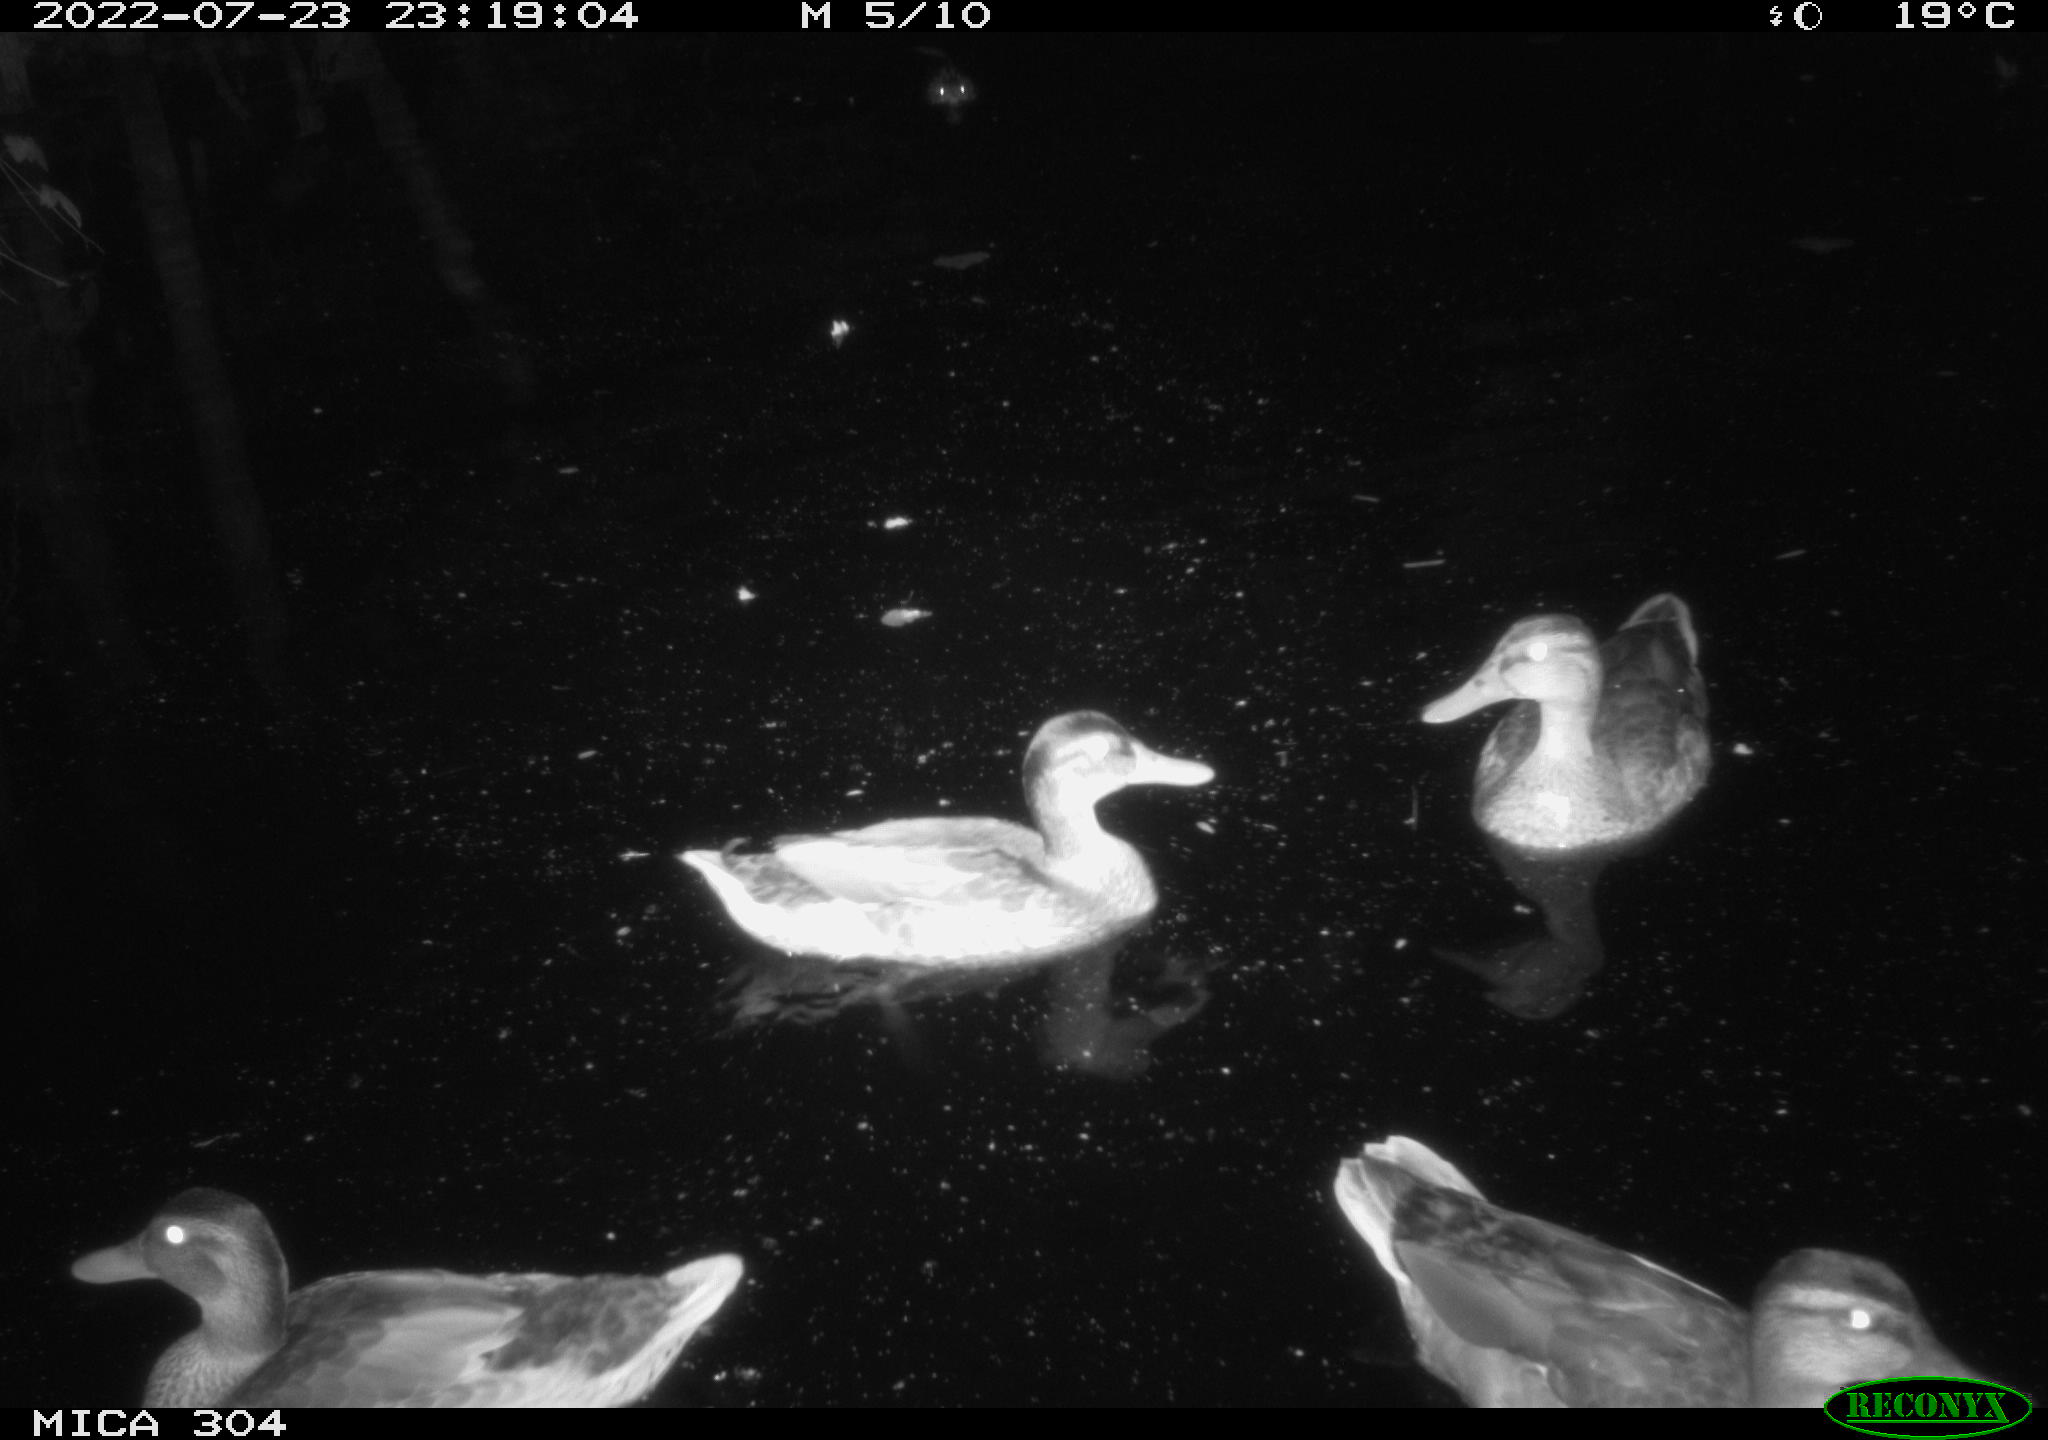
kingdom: Animalia
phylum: Chordata
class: Aves
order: Anseriformes
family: Anatidae
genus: Anas
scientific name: Anas platyrhynchos
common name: Mallard
